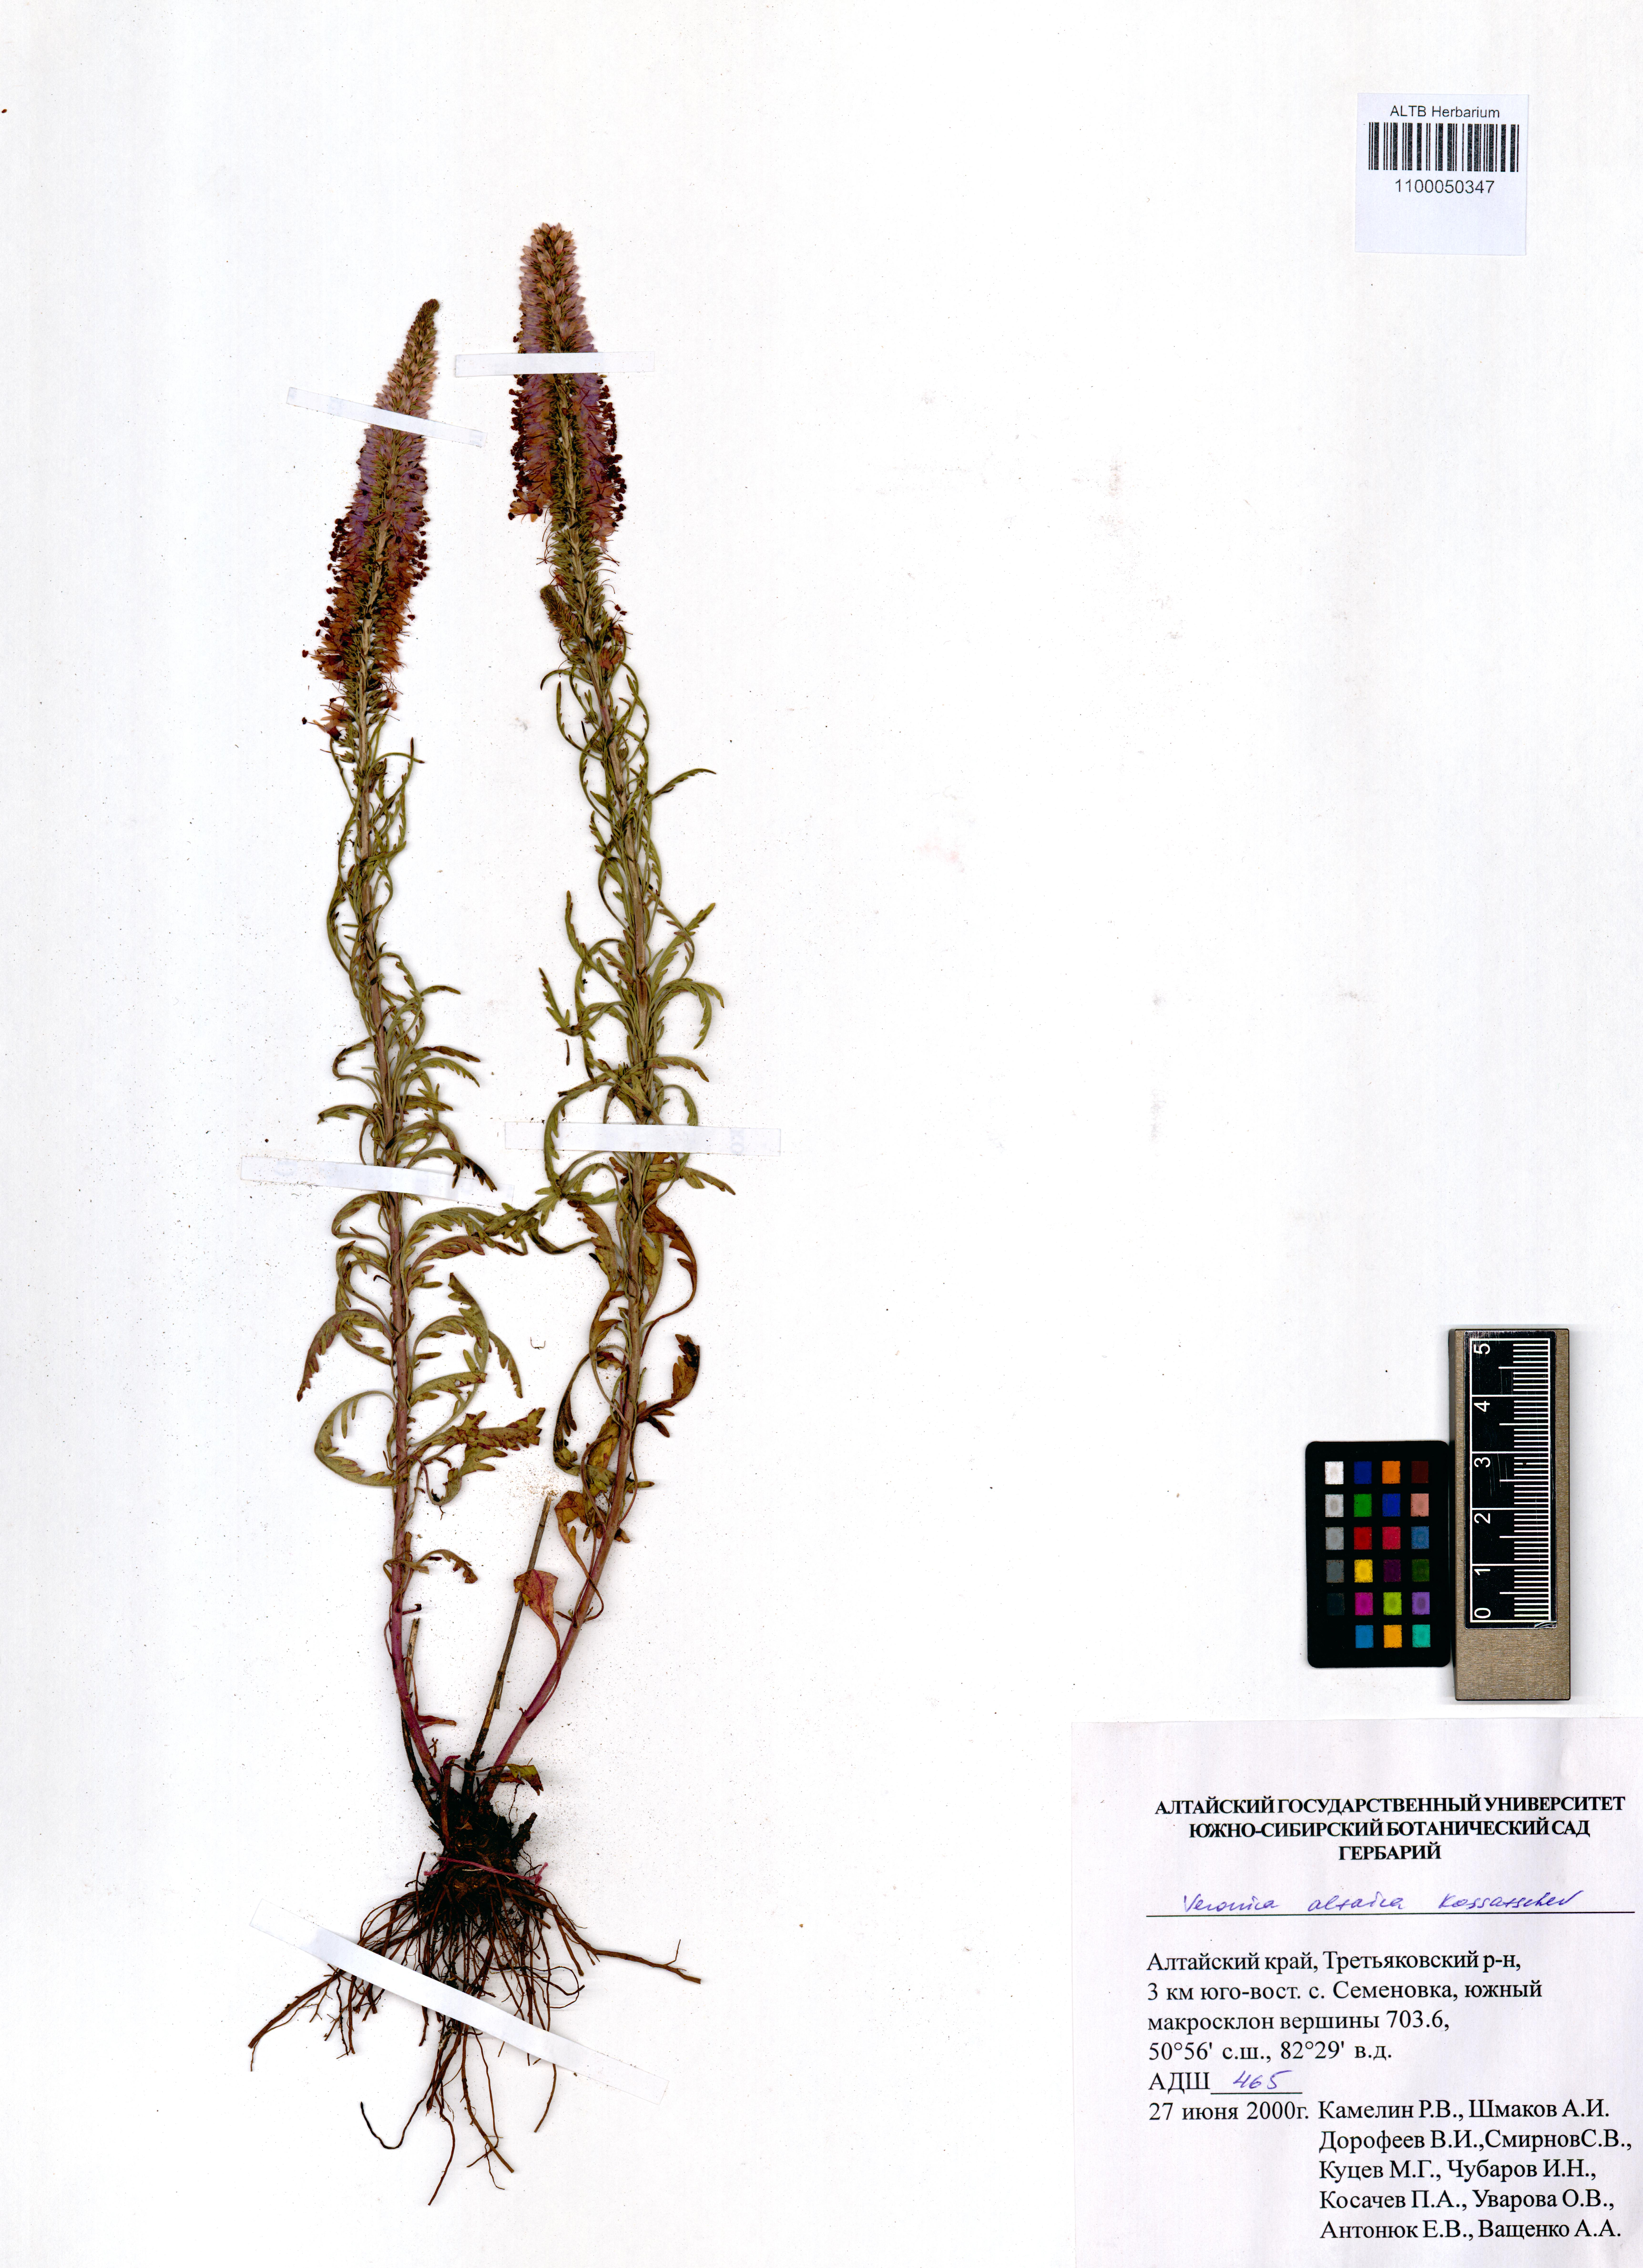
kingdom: Plantae
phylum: Tracheophyta
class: Magnoliopsida
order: Lamiales
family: Plantaginaceae
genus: Veronica
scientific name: Veronica altaica
